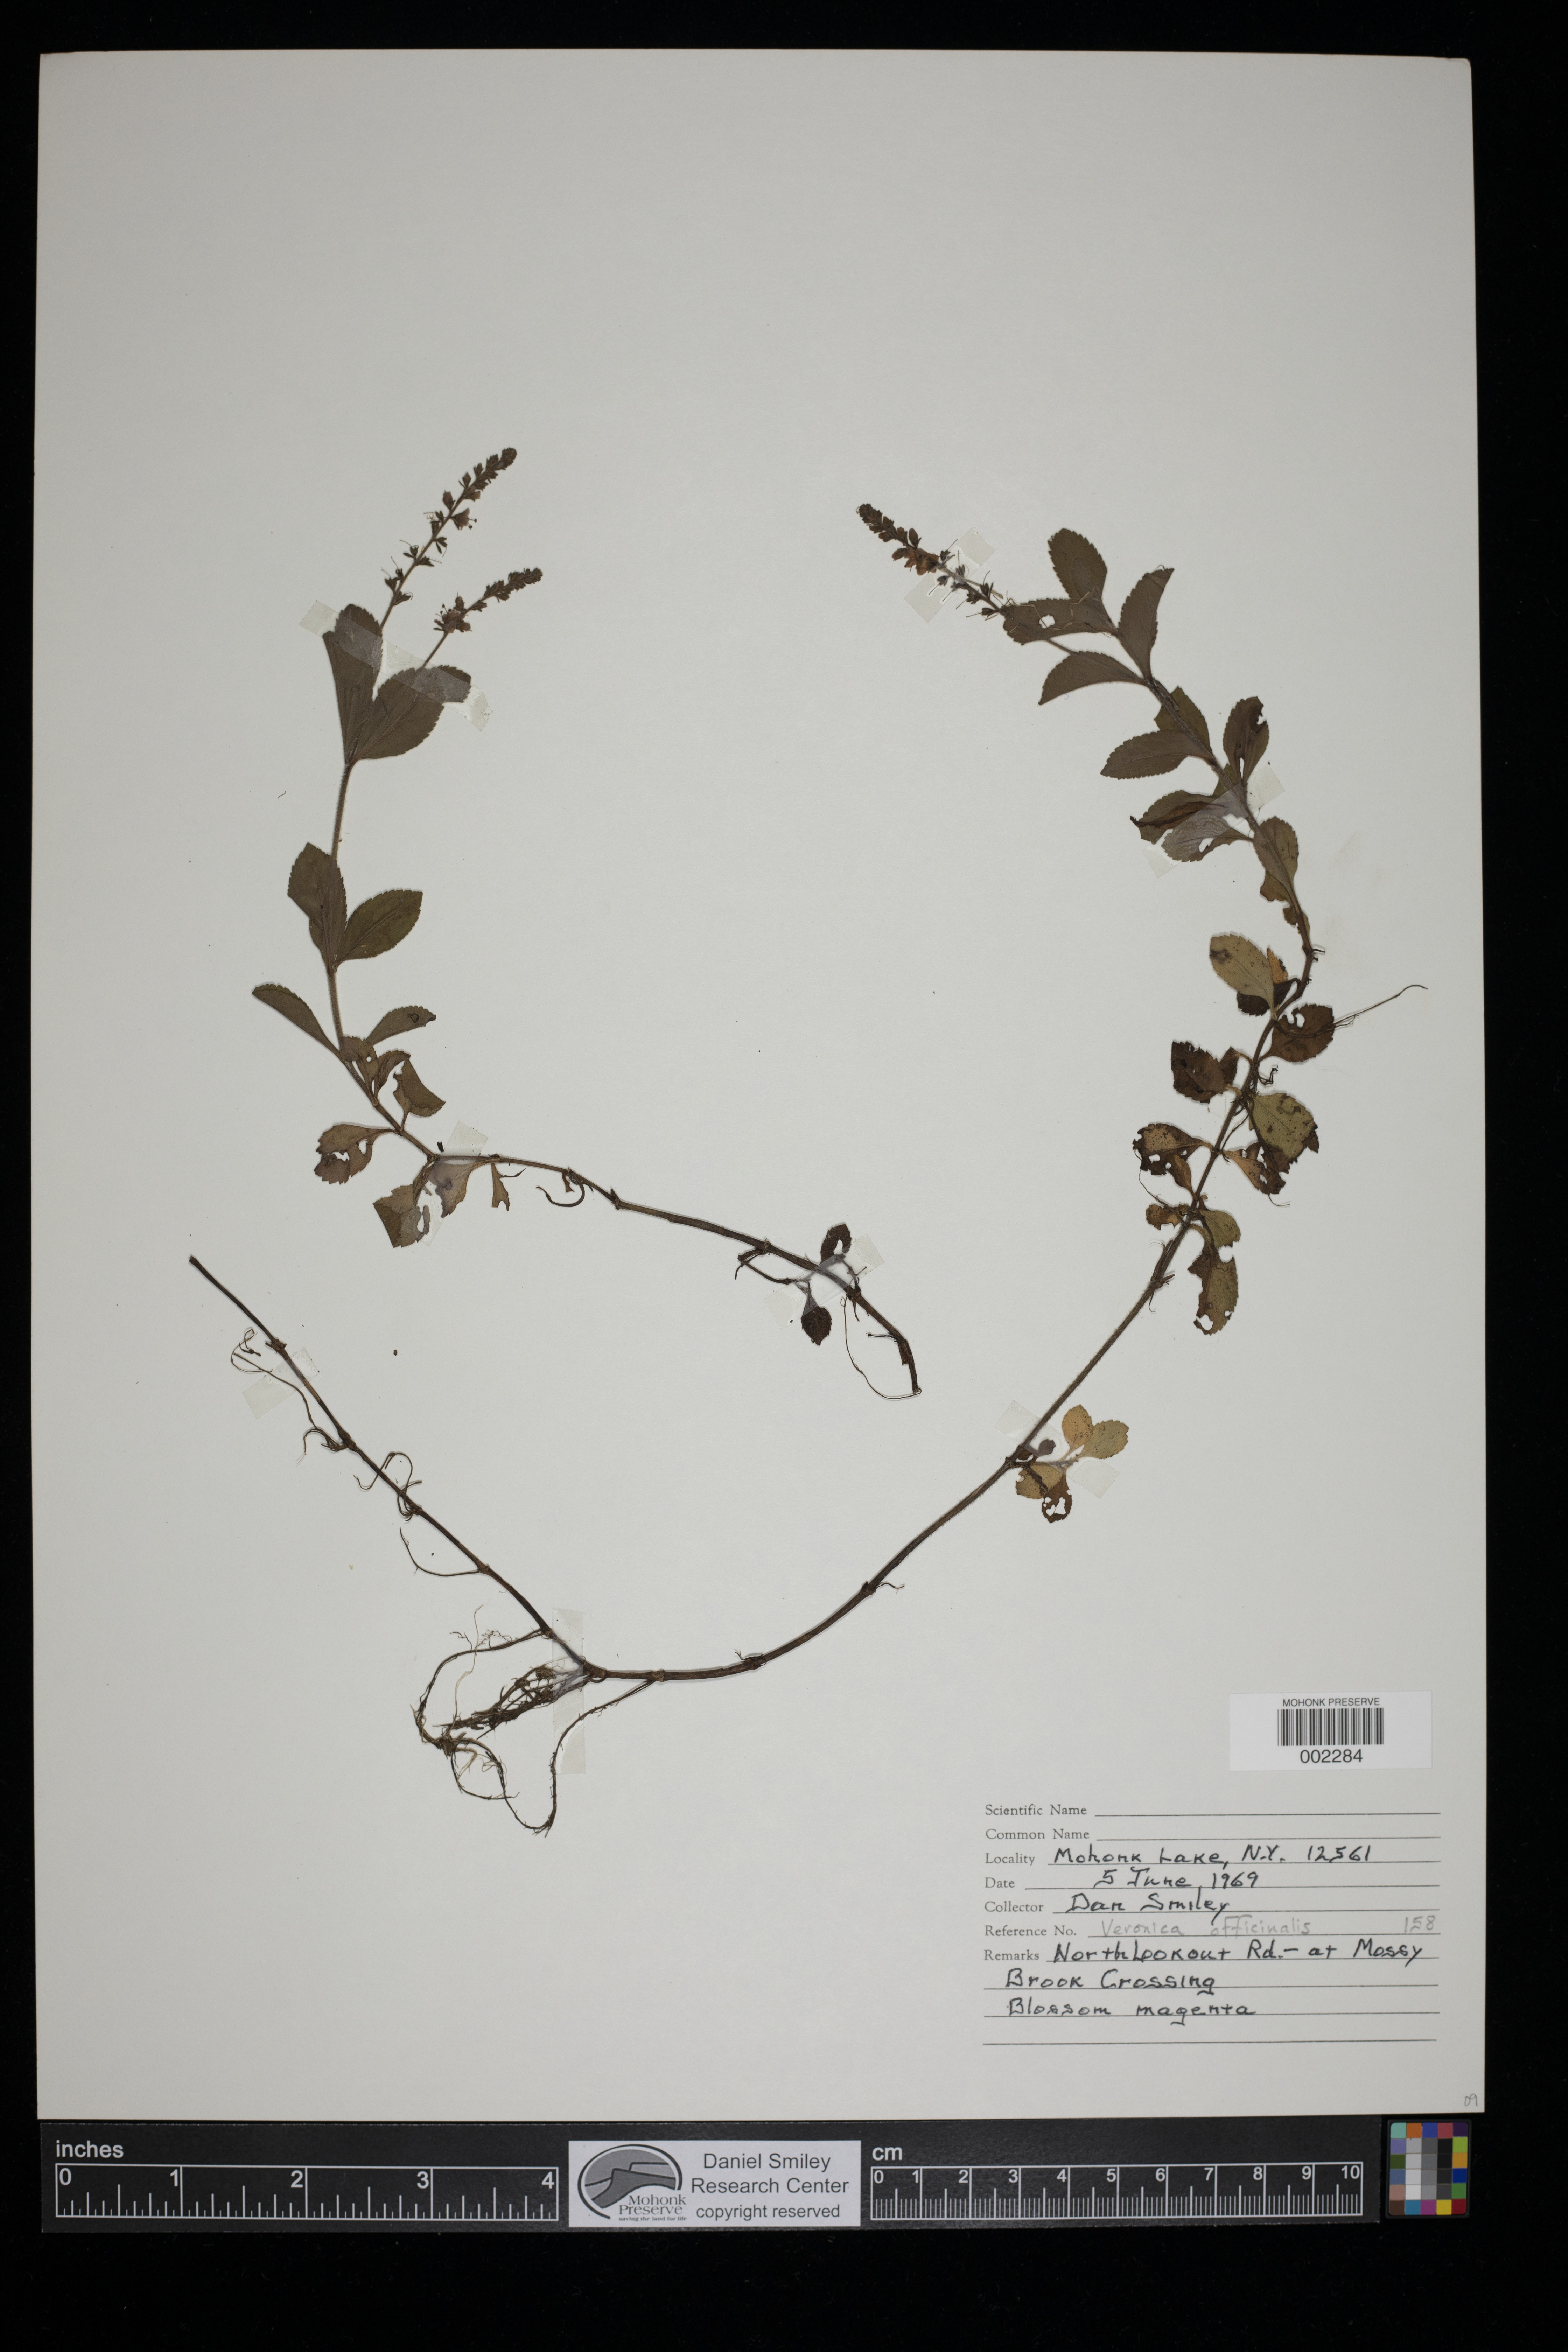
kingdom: Plantae
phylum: Tracheophyta
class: Magnoliopsida
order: Lamiales
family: Plantaginaceae
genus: Veronica
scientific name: Veronica officinalis
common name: Common speedwell
